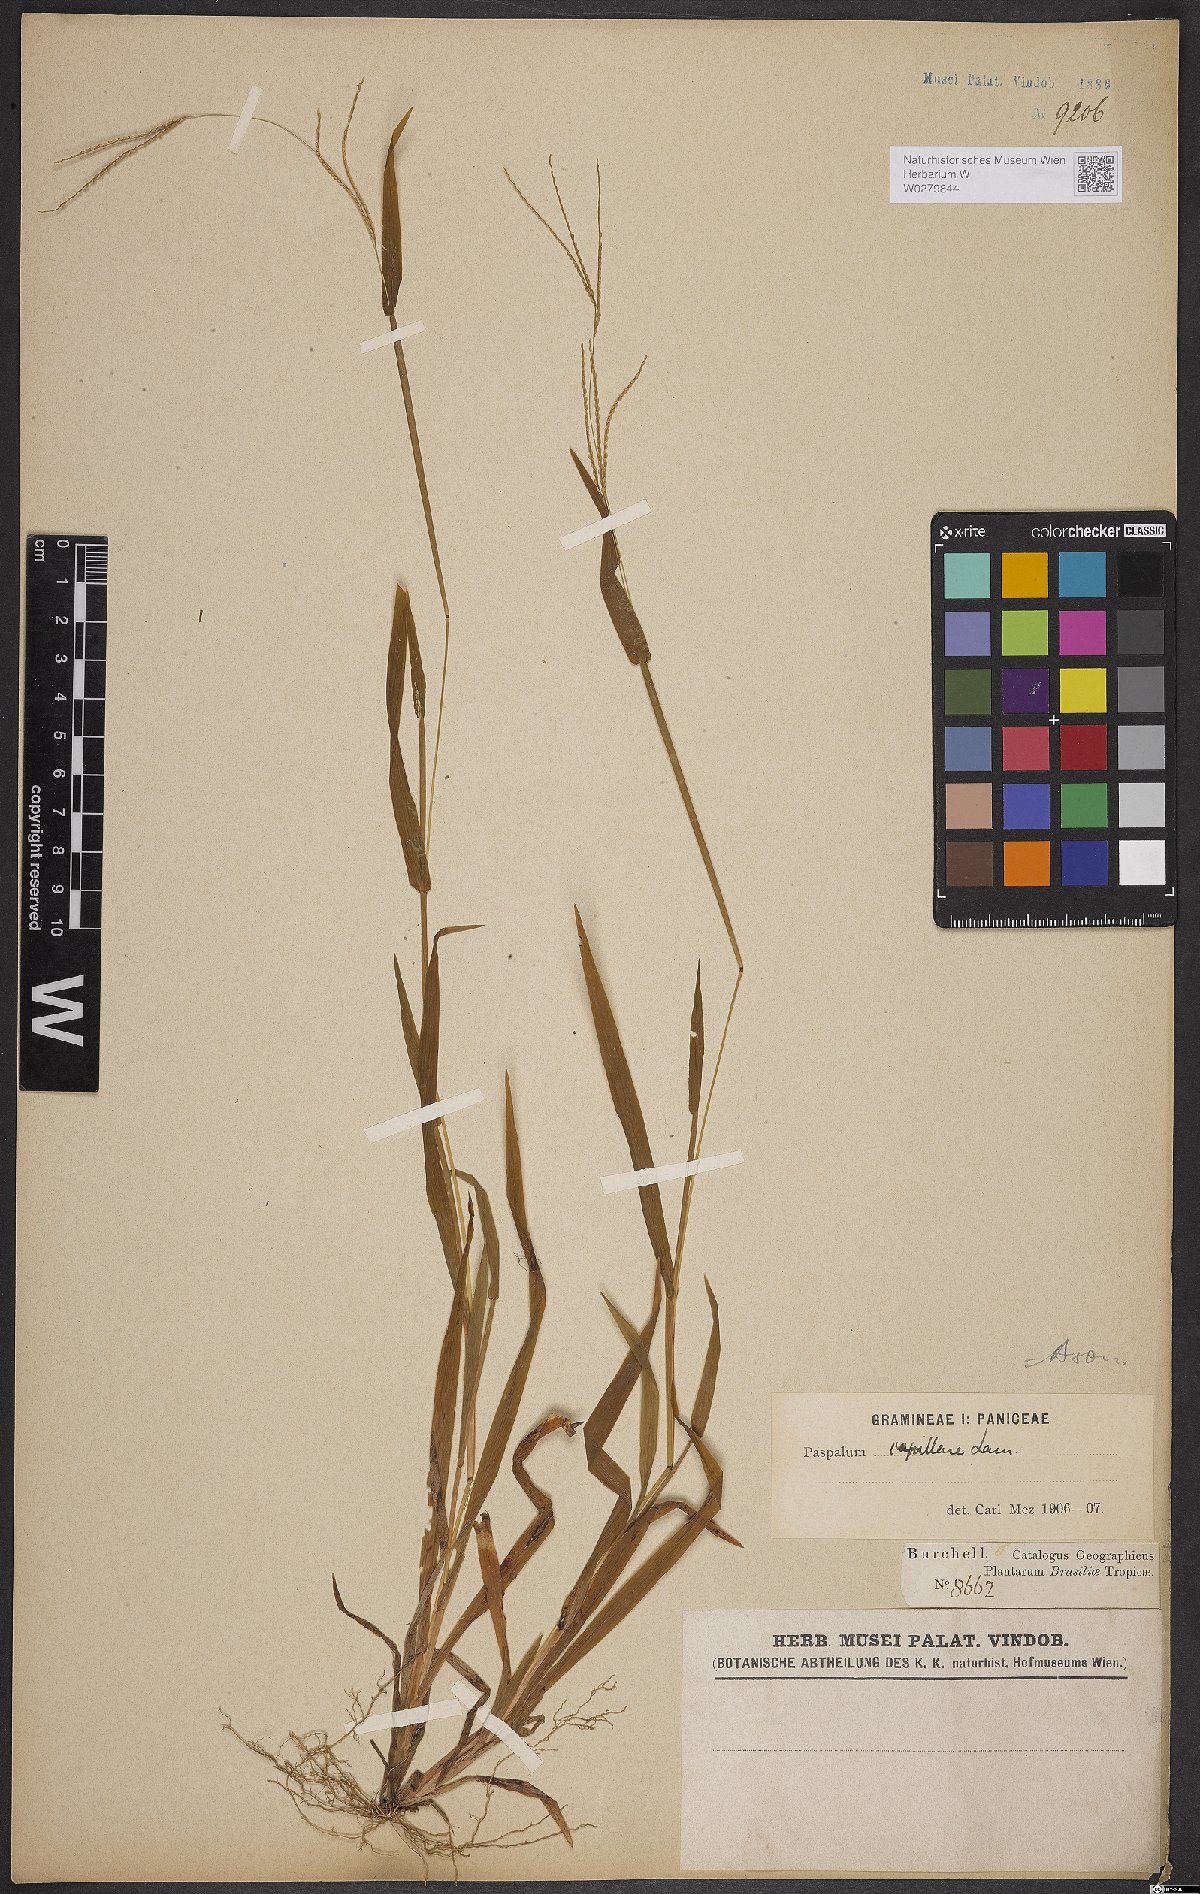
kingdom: Plantae
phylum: Tracheophyta
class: Liliopsida
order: Poales
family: Poaceae
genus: Axonopus
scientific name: Axonopus capillaris
